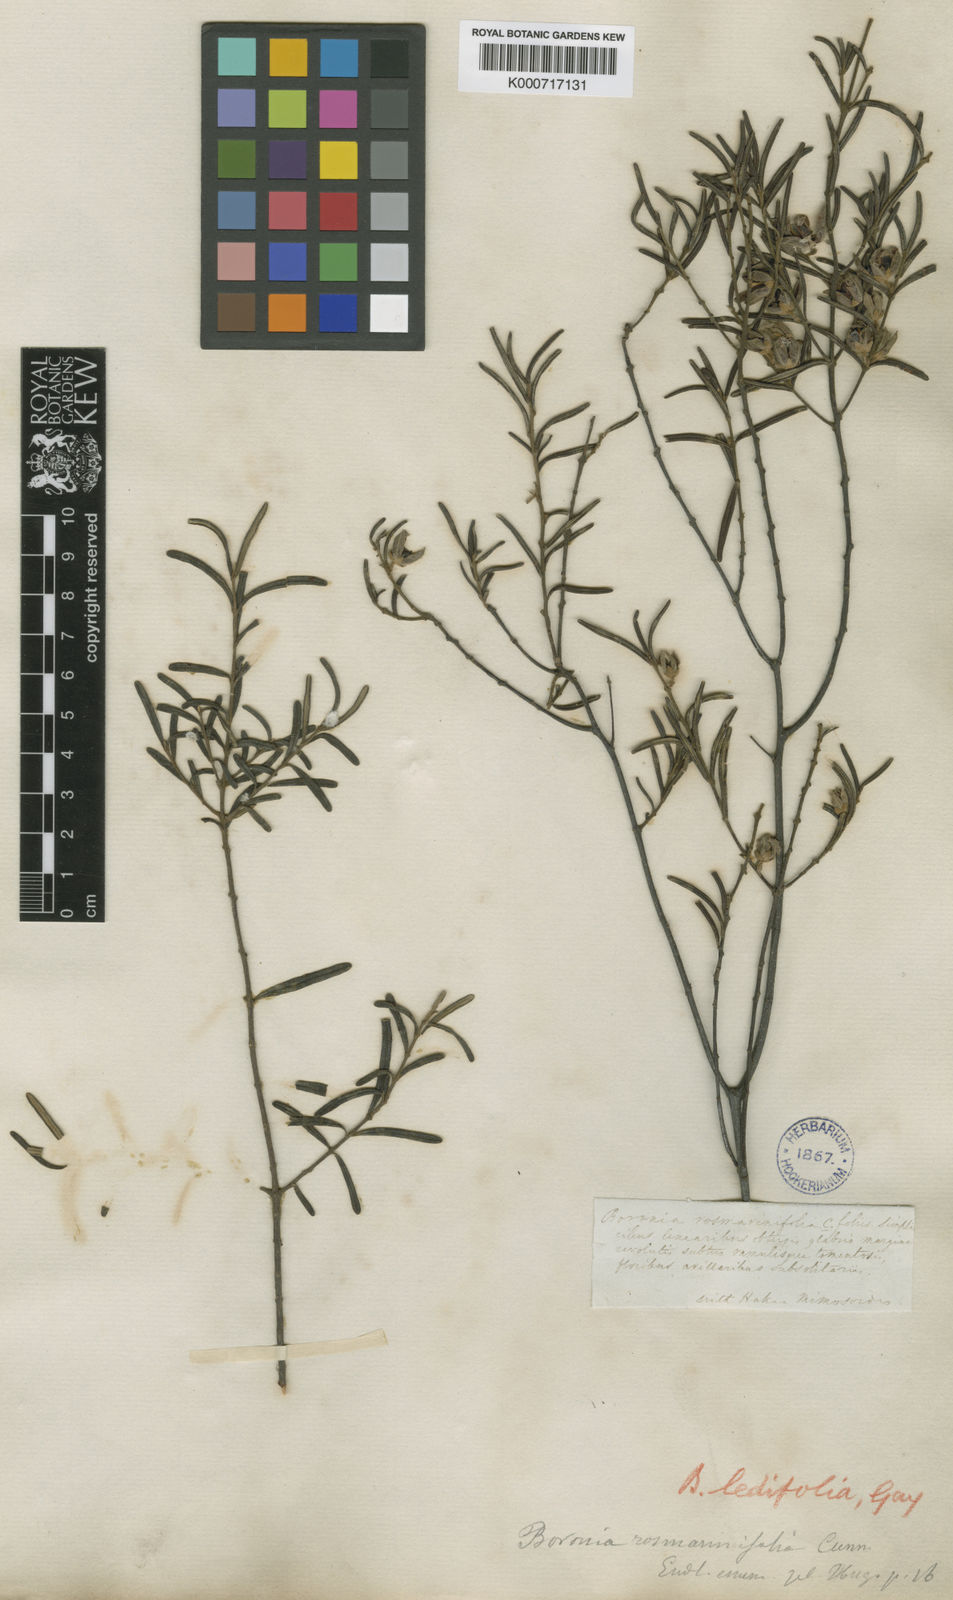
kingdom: Plantae
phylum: Tracheophyta
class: Magnoliopsida
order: Sapindales
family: Rutaceae
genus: Boronia
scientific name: Boronia rosmarinifolia
